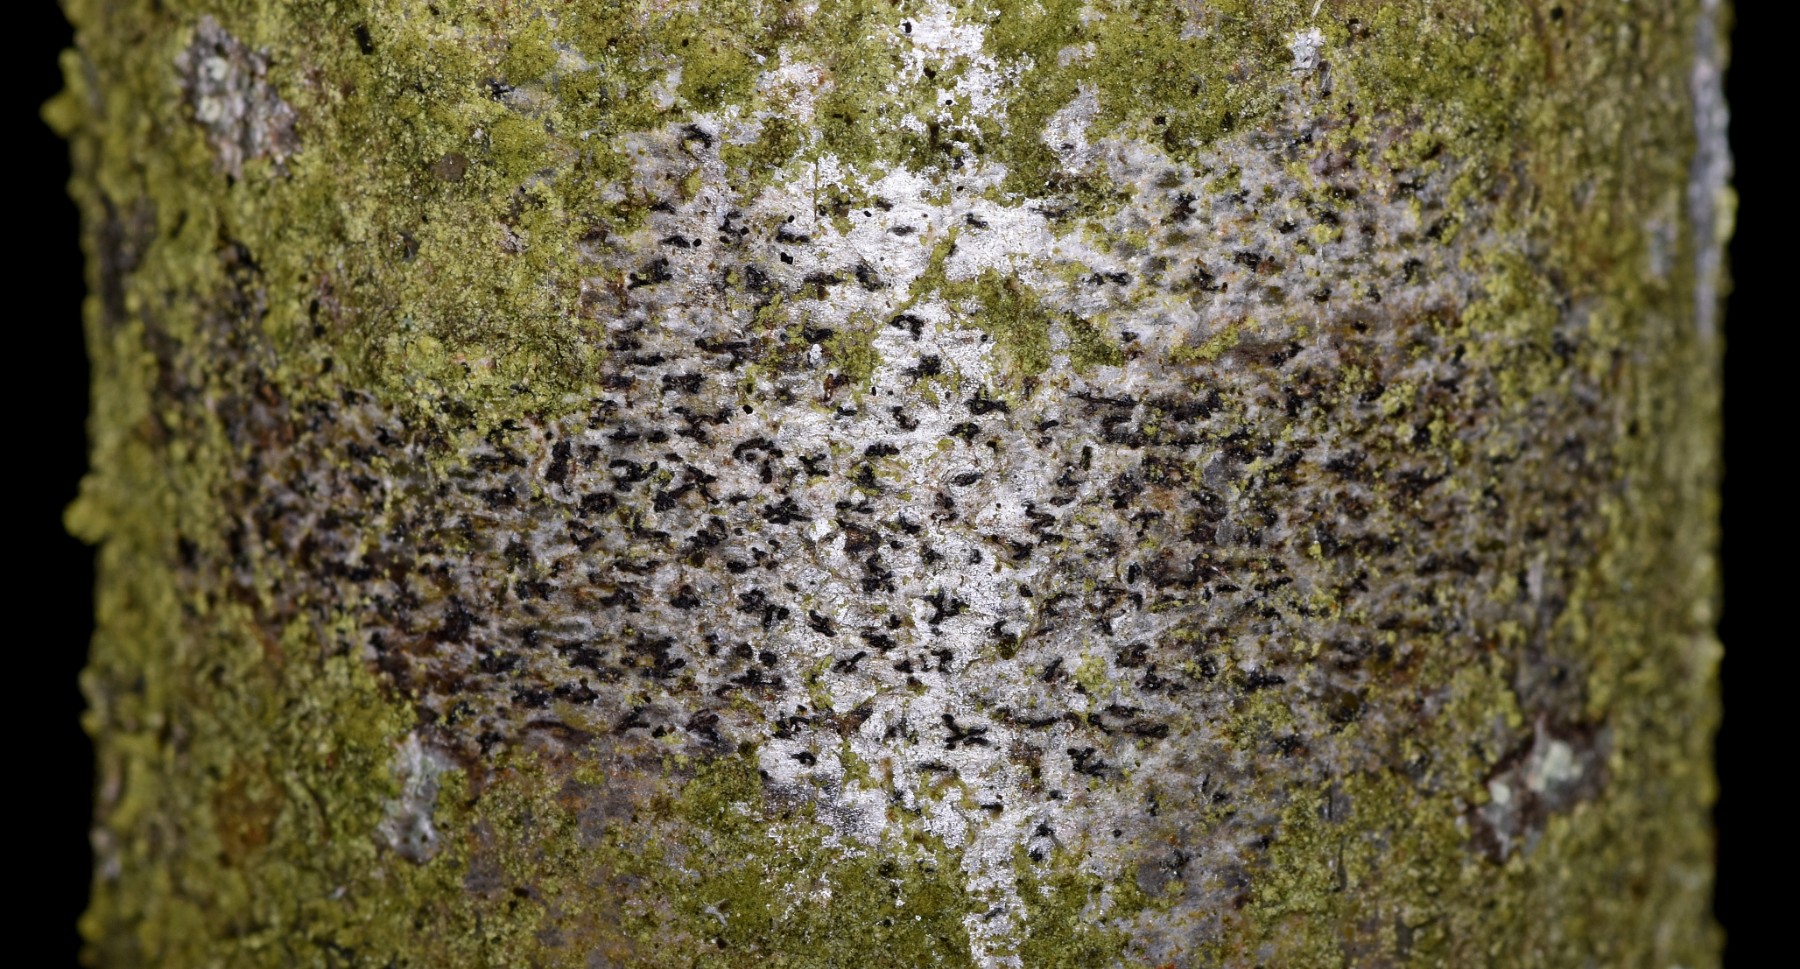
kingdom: Fungi
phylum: Ascomycota
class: Arthoniomycetes
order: Arthoniales
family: Arthoniaceae
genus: Arthonia
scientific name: Arthonia radiata
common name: stjerne-pletlav
